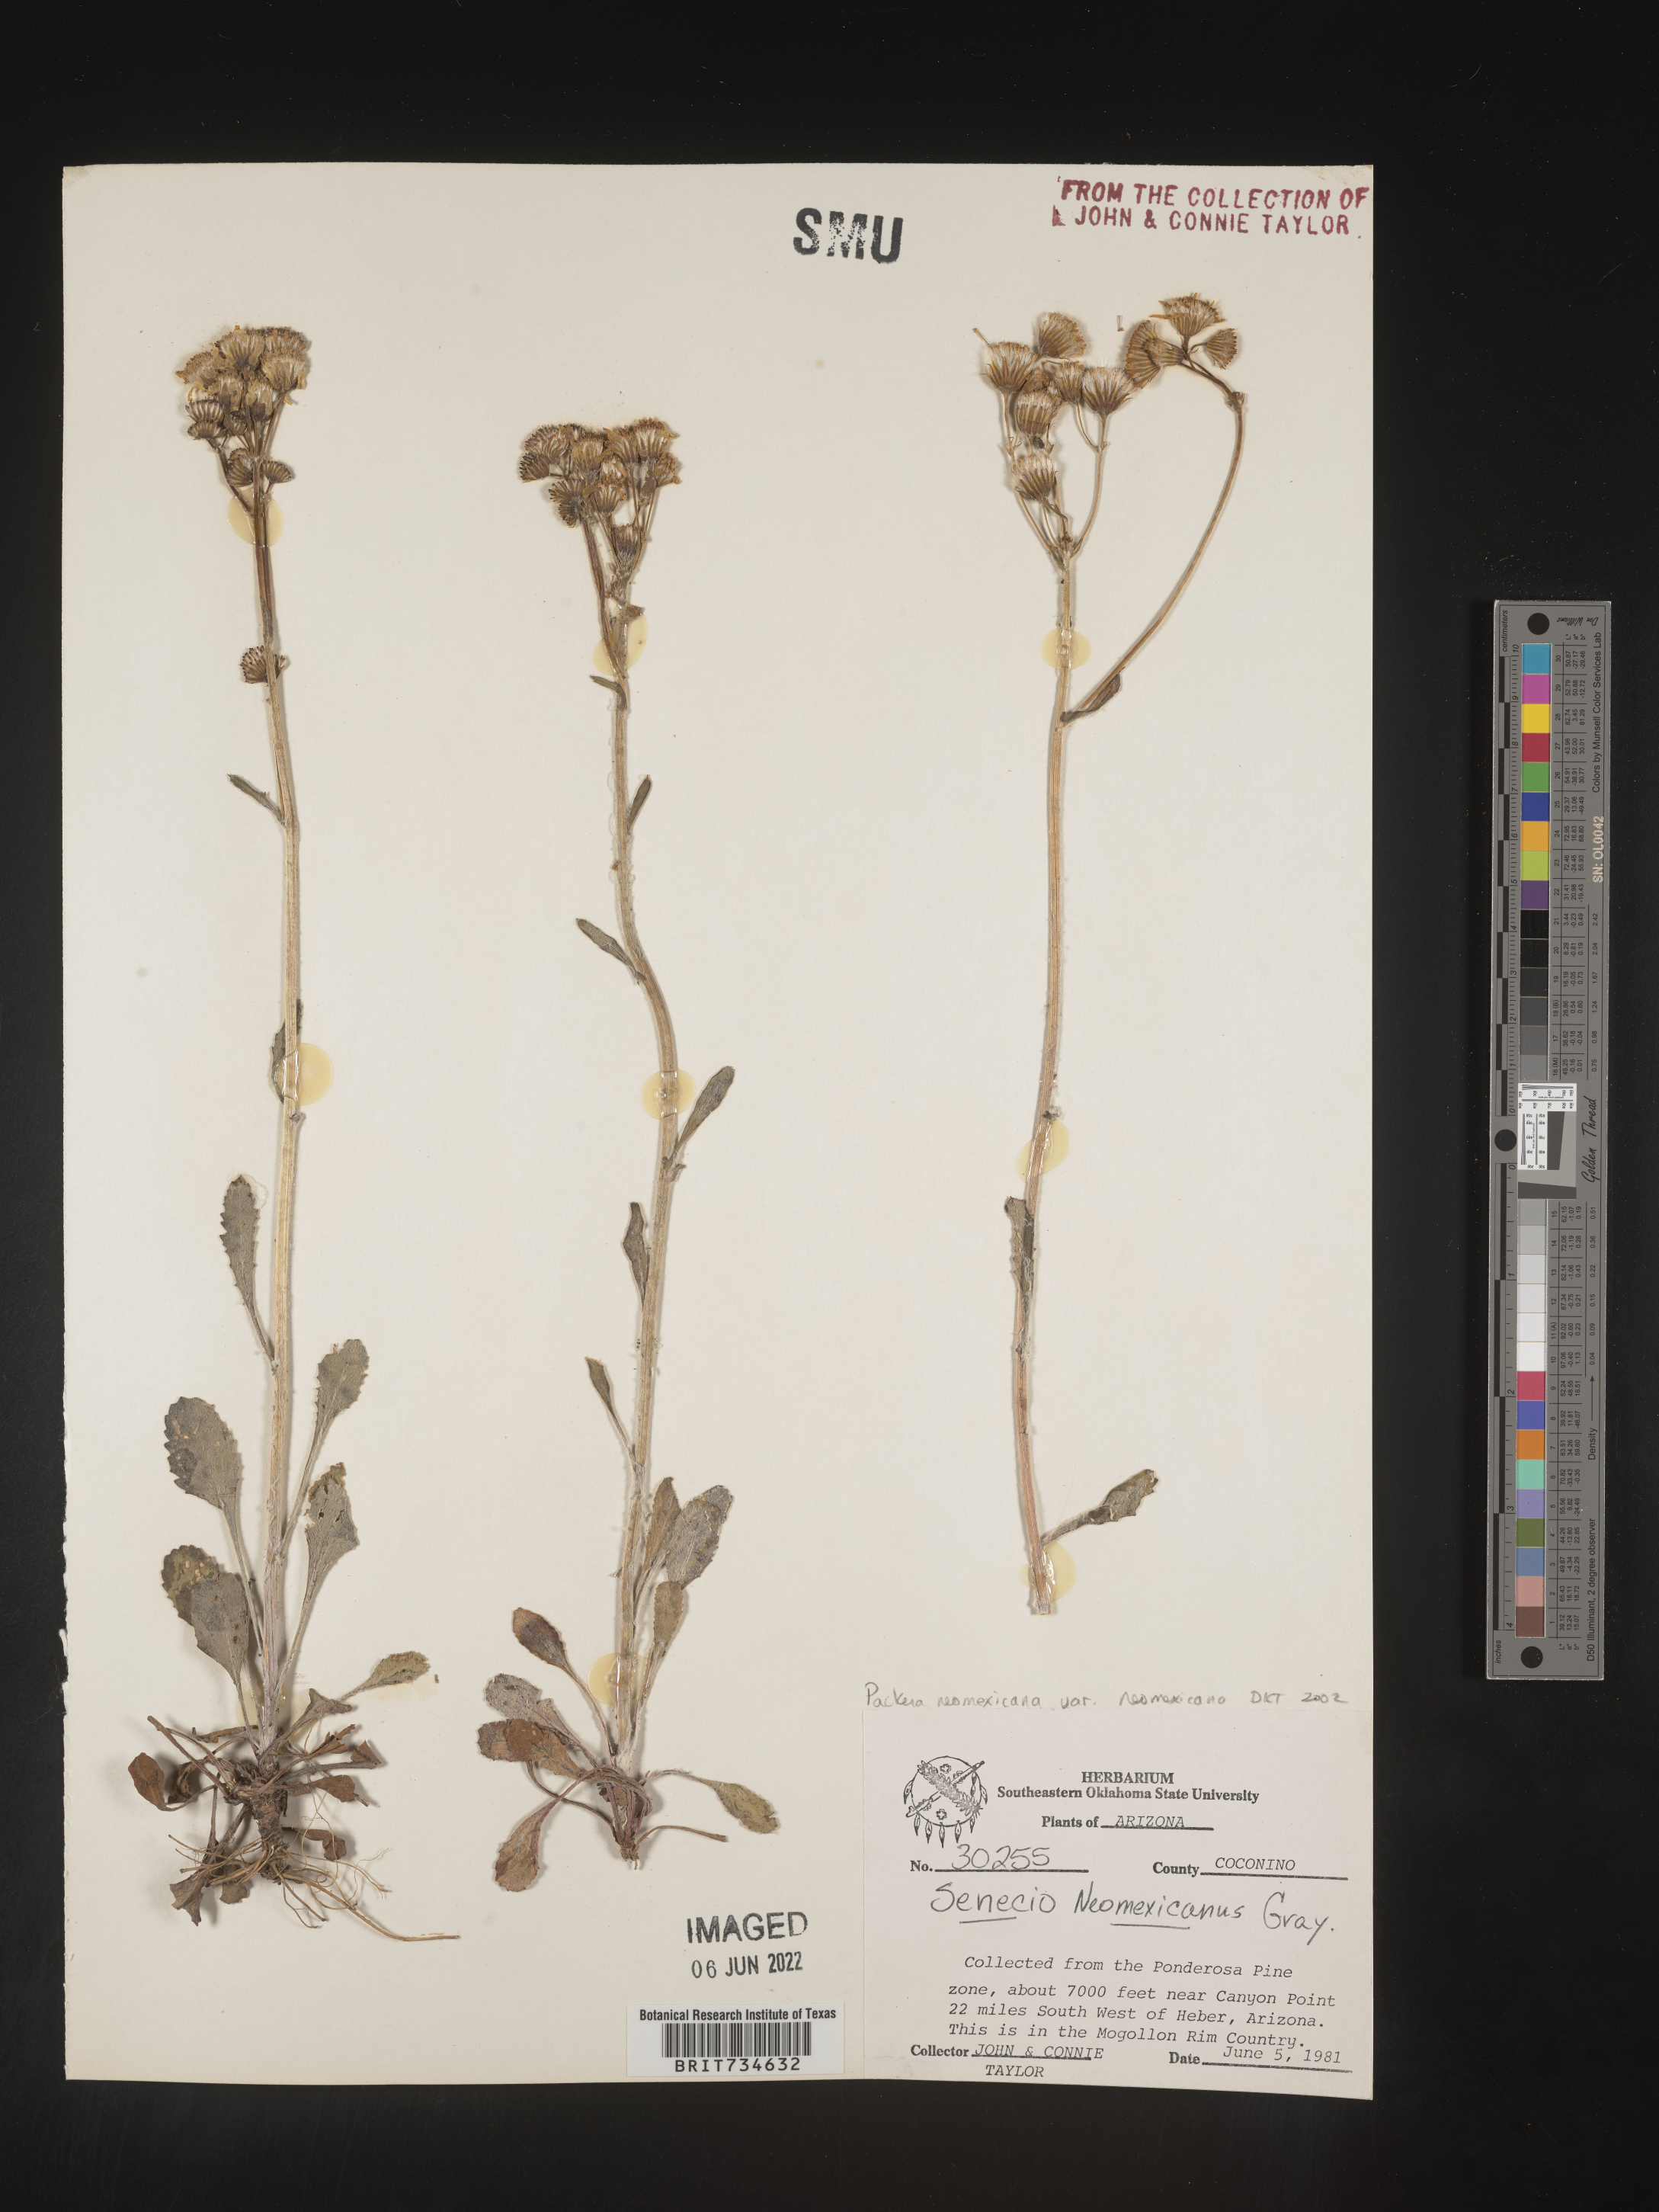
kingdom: Plantae
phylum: Tracheophyta
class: Magnoliopsida
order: Asterales
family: Asteraceae
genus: Packera
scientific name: Packera neomexicana
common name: New mexico butterweed
